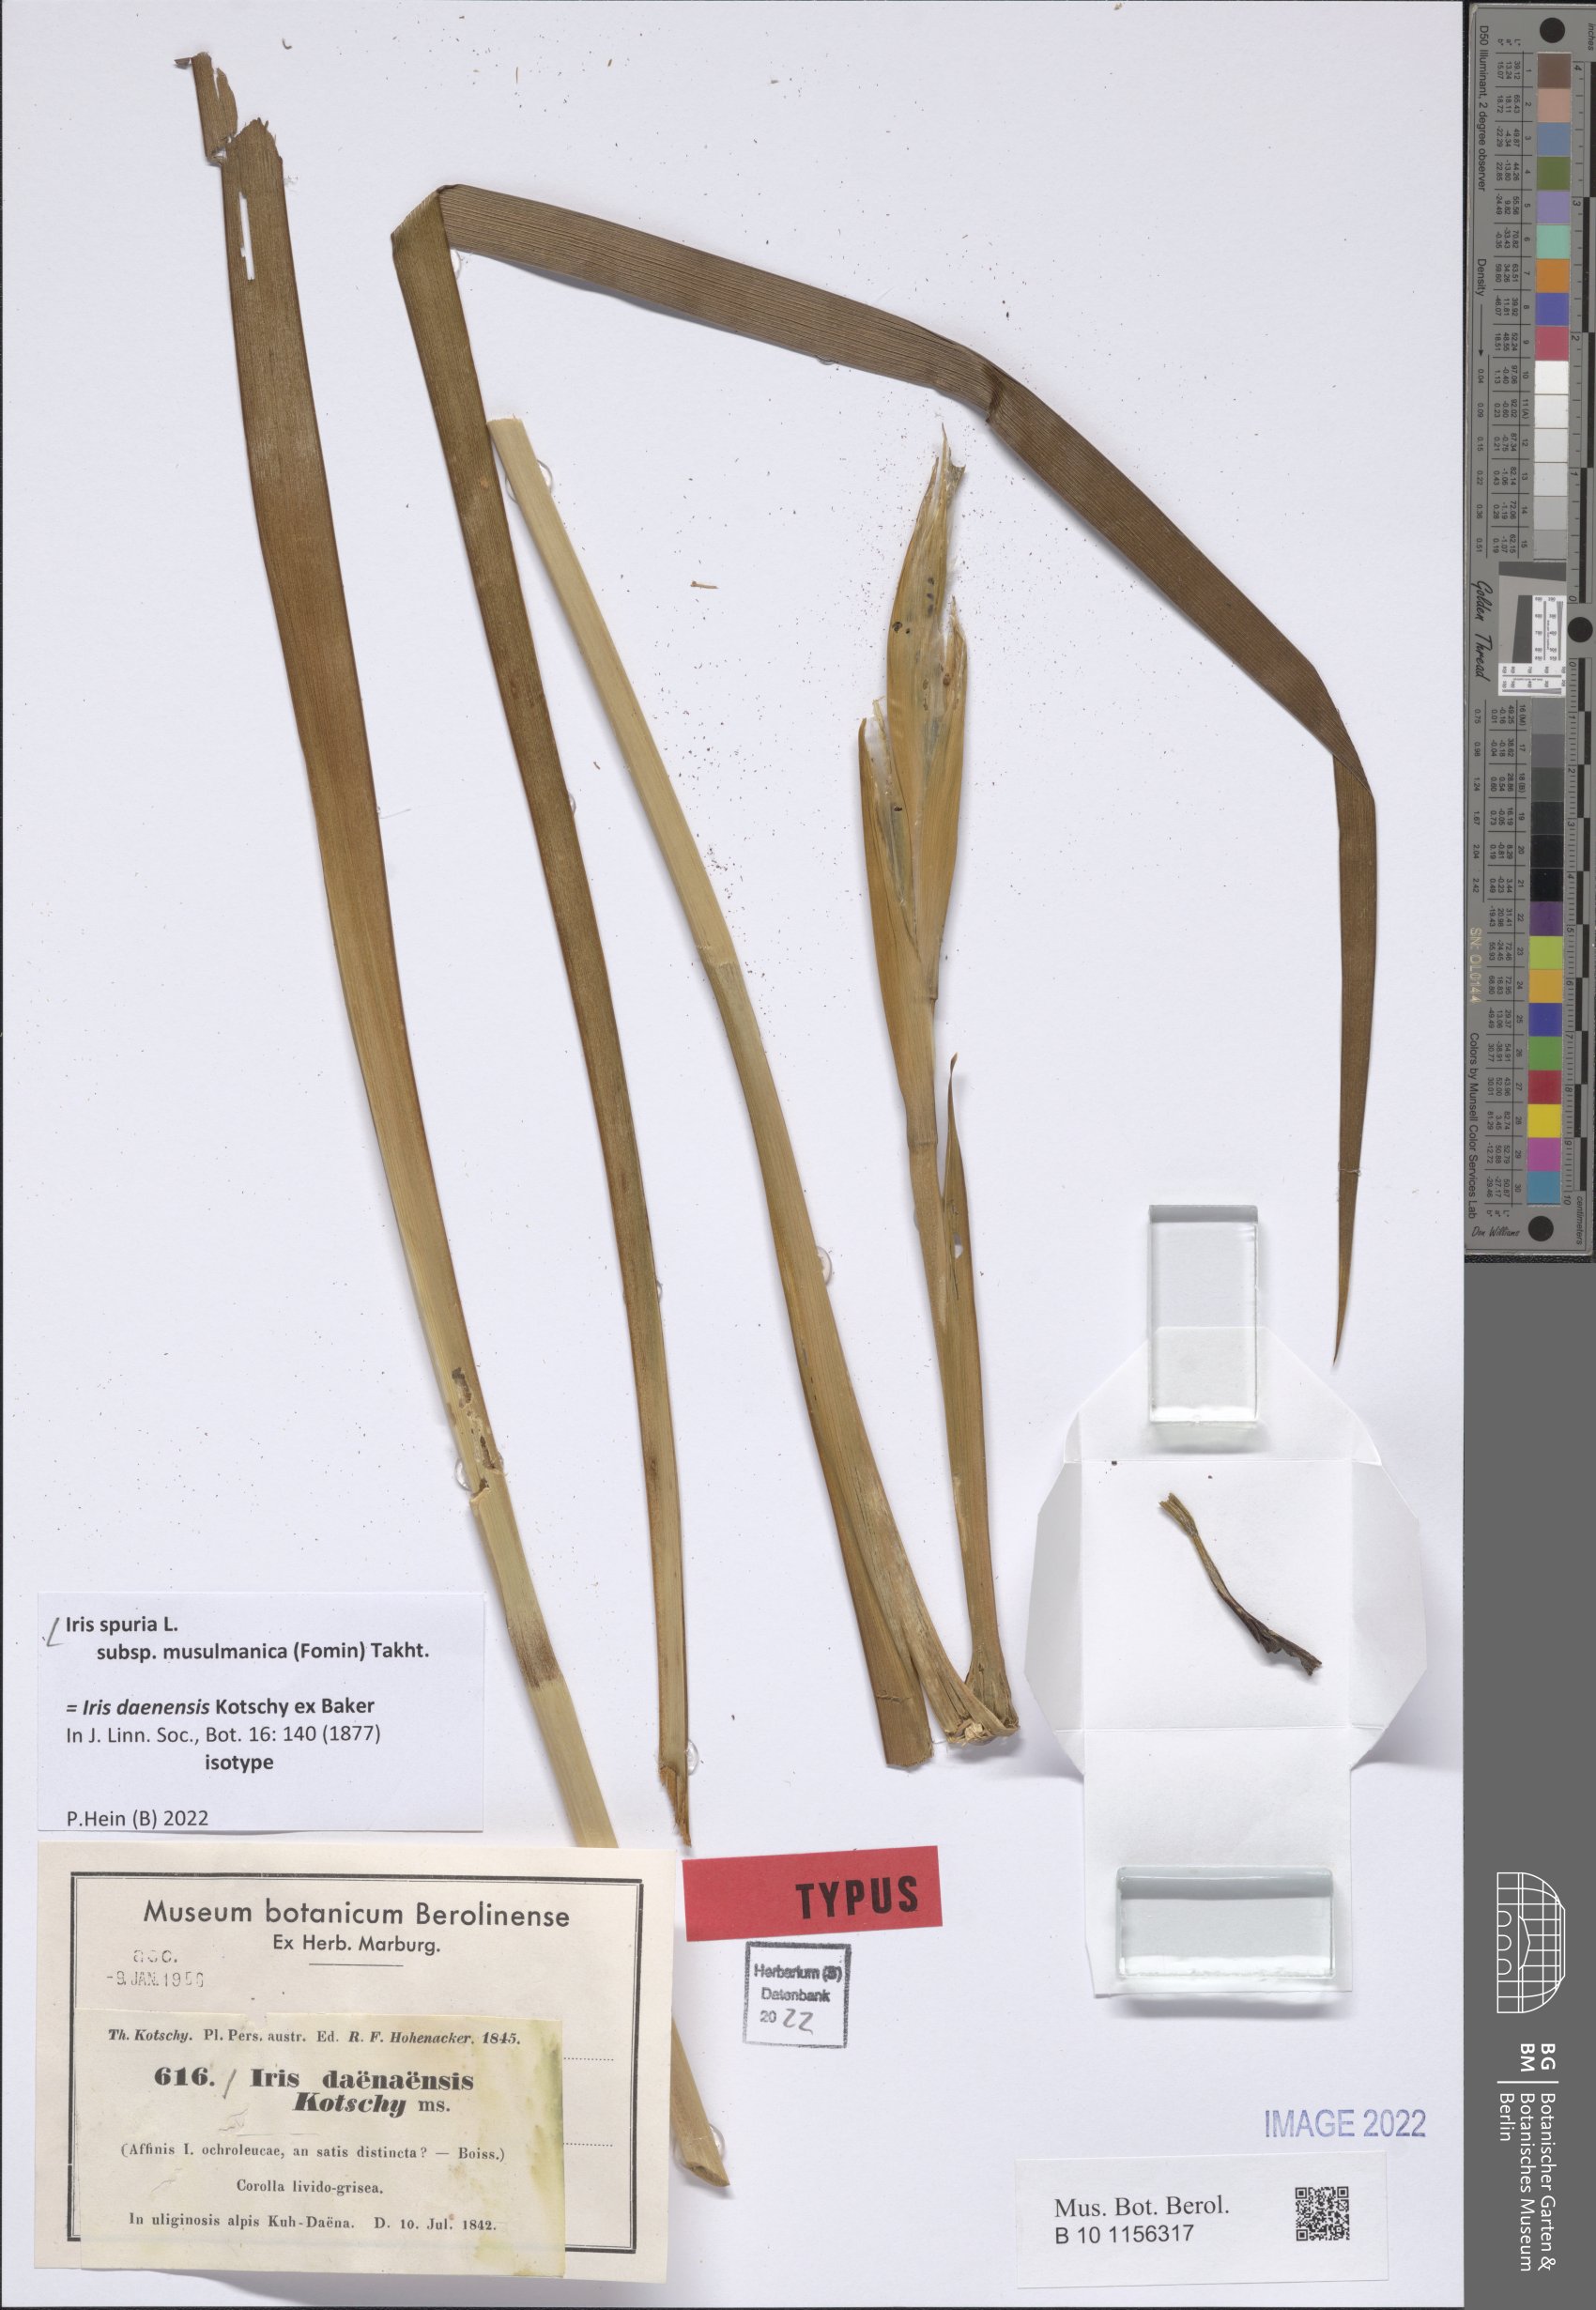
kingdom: Plantae
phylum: Tracheophyta
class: Liliopsida
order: Asparagales
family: Iridaceae
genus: Iris
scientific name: Iris spuria
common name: Blue iris
